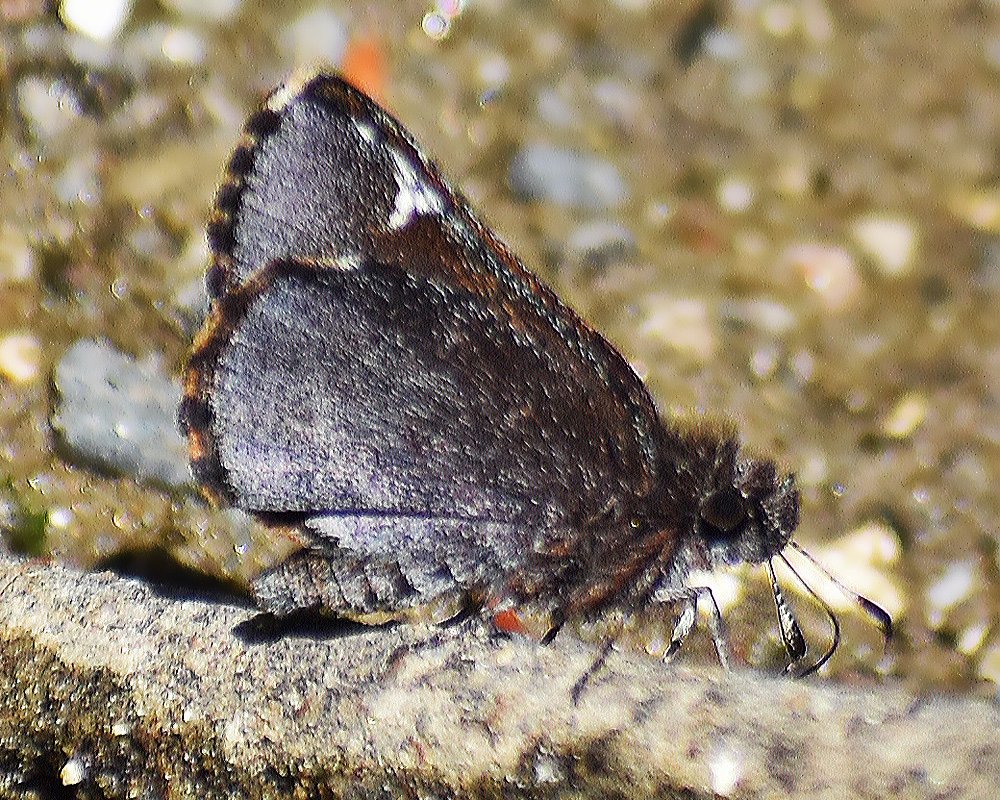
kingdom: Animalia
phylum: Arthropoda
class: Insecta
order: Lepidoptera
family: Hesperiidae
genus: Mastor
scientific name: Mastor vialis
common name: Common Roadside-Skipper
